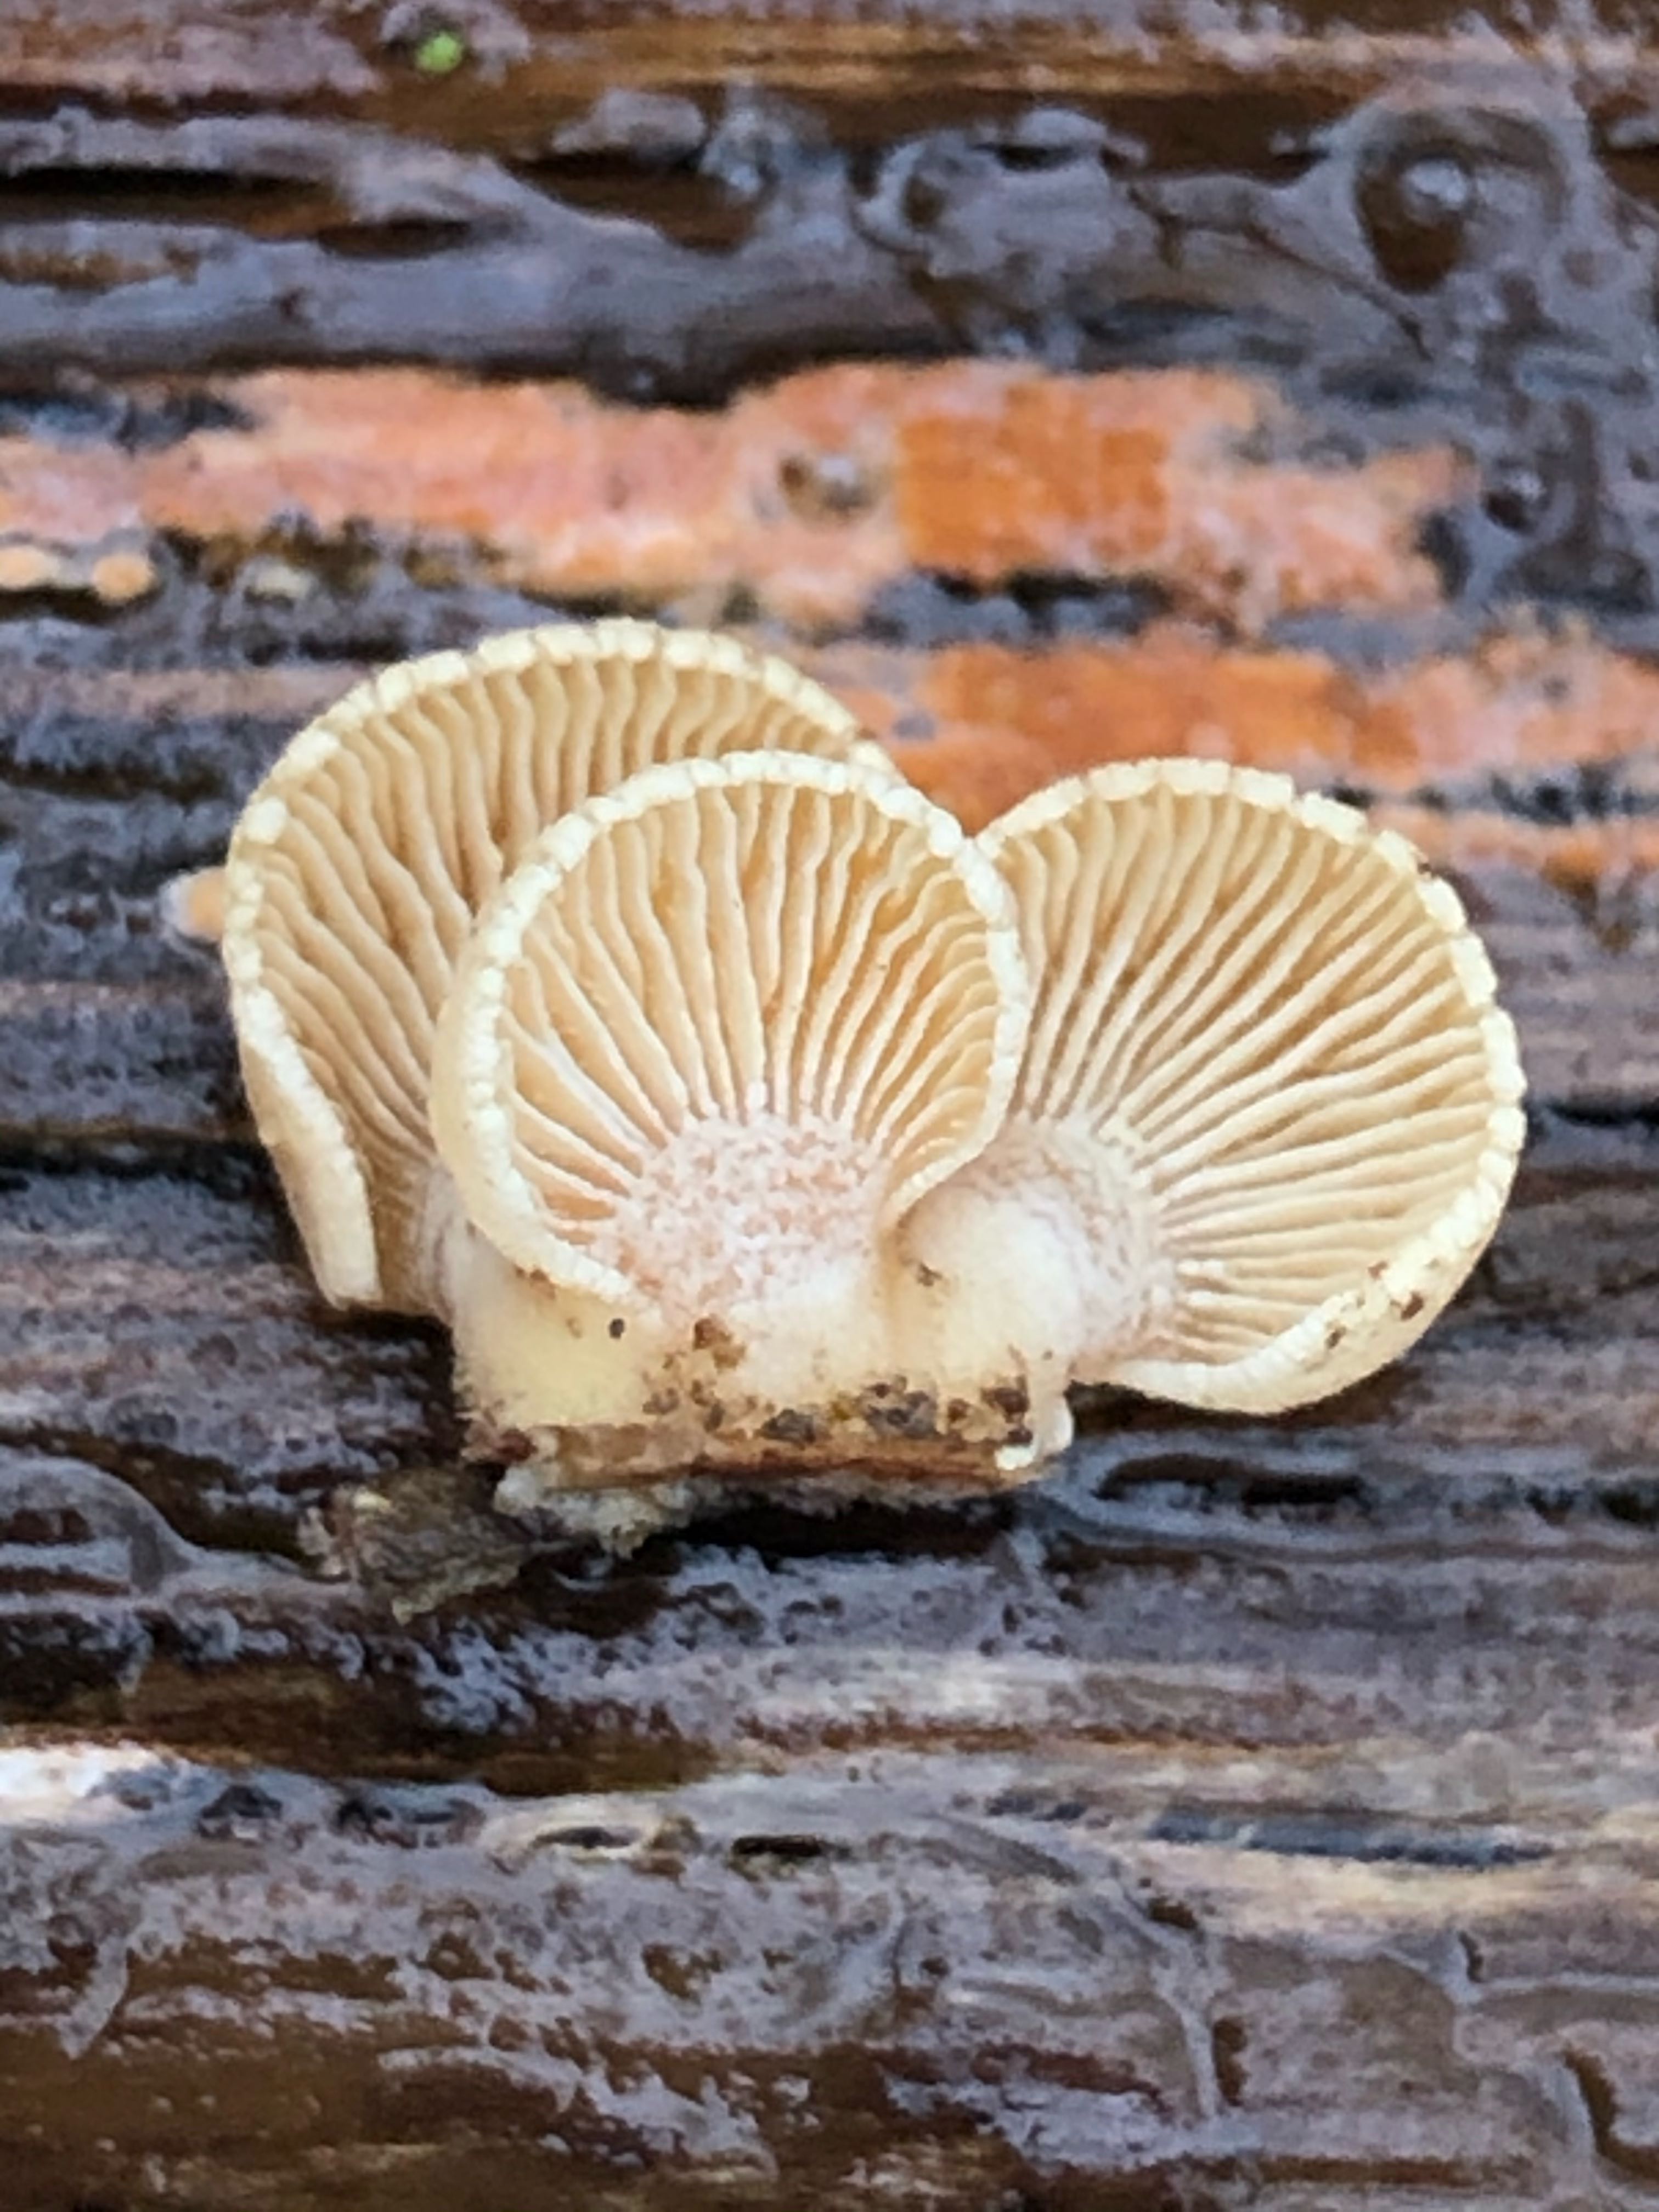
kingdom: Fungi
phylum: Basidiomycota
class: Agaricomycetes
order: Agaricales
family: Mycenaceae
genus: Panellus
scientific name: Panellus stipticus
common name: kliddet epaulethat
